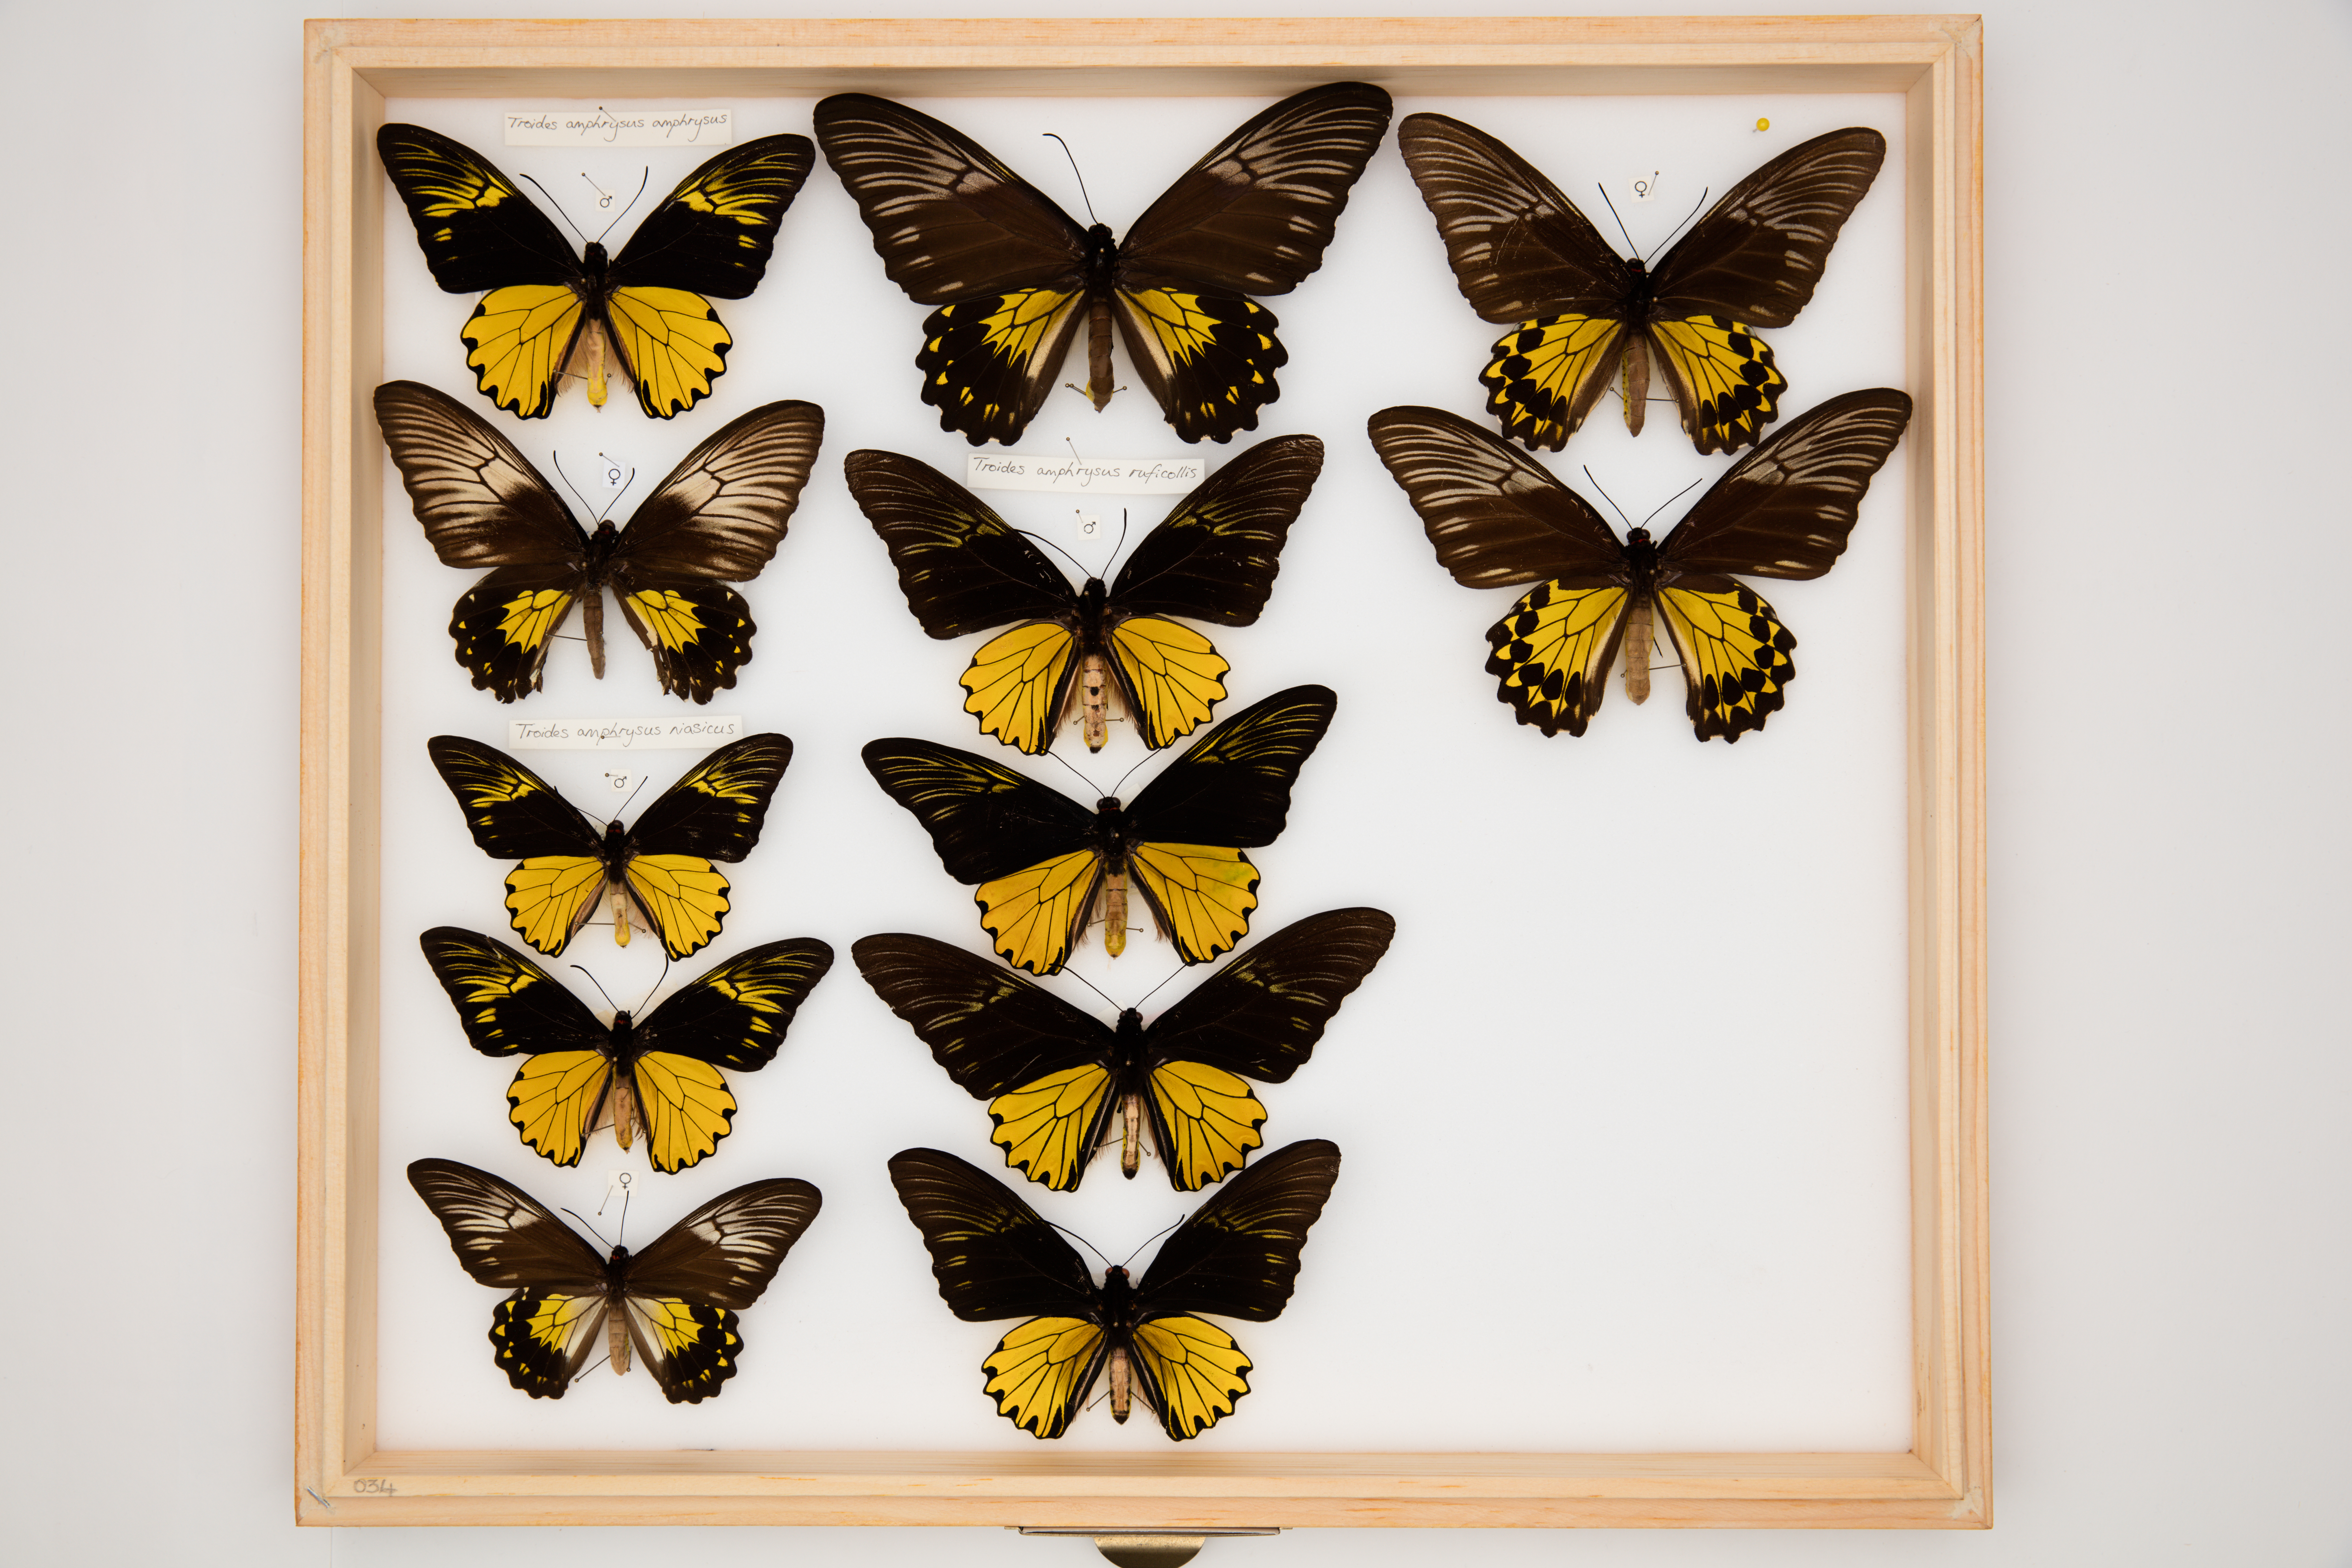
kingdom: Animalia
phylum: Arthropoda
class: Insecta
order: Lepidoptera
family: Papilionidae
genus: Troides
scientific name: Troides amphrysus
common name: Malay birdwing
